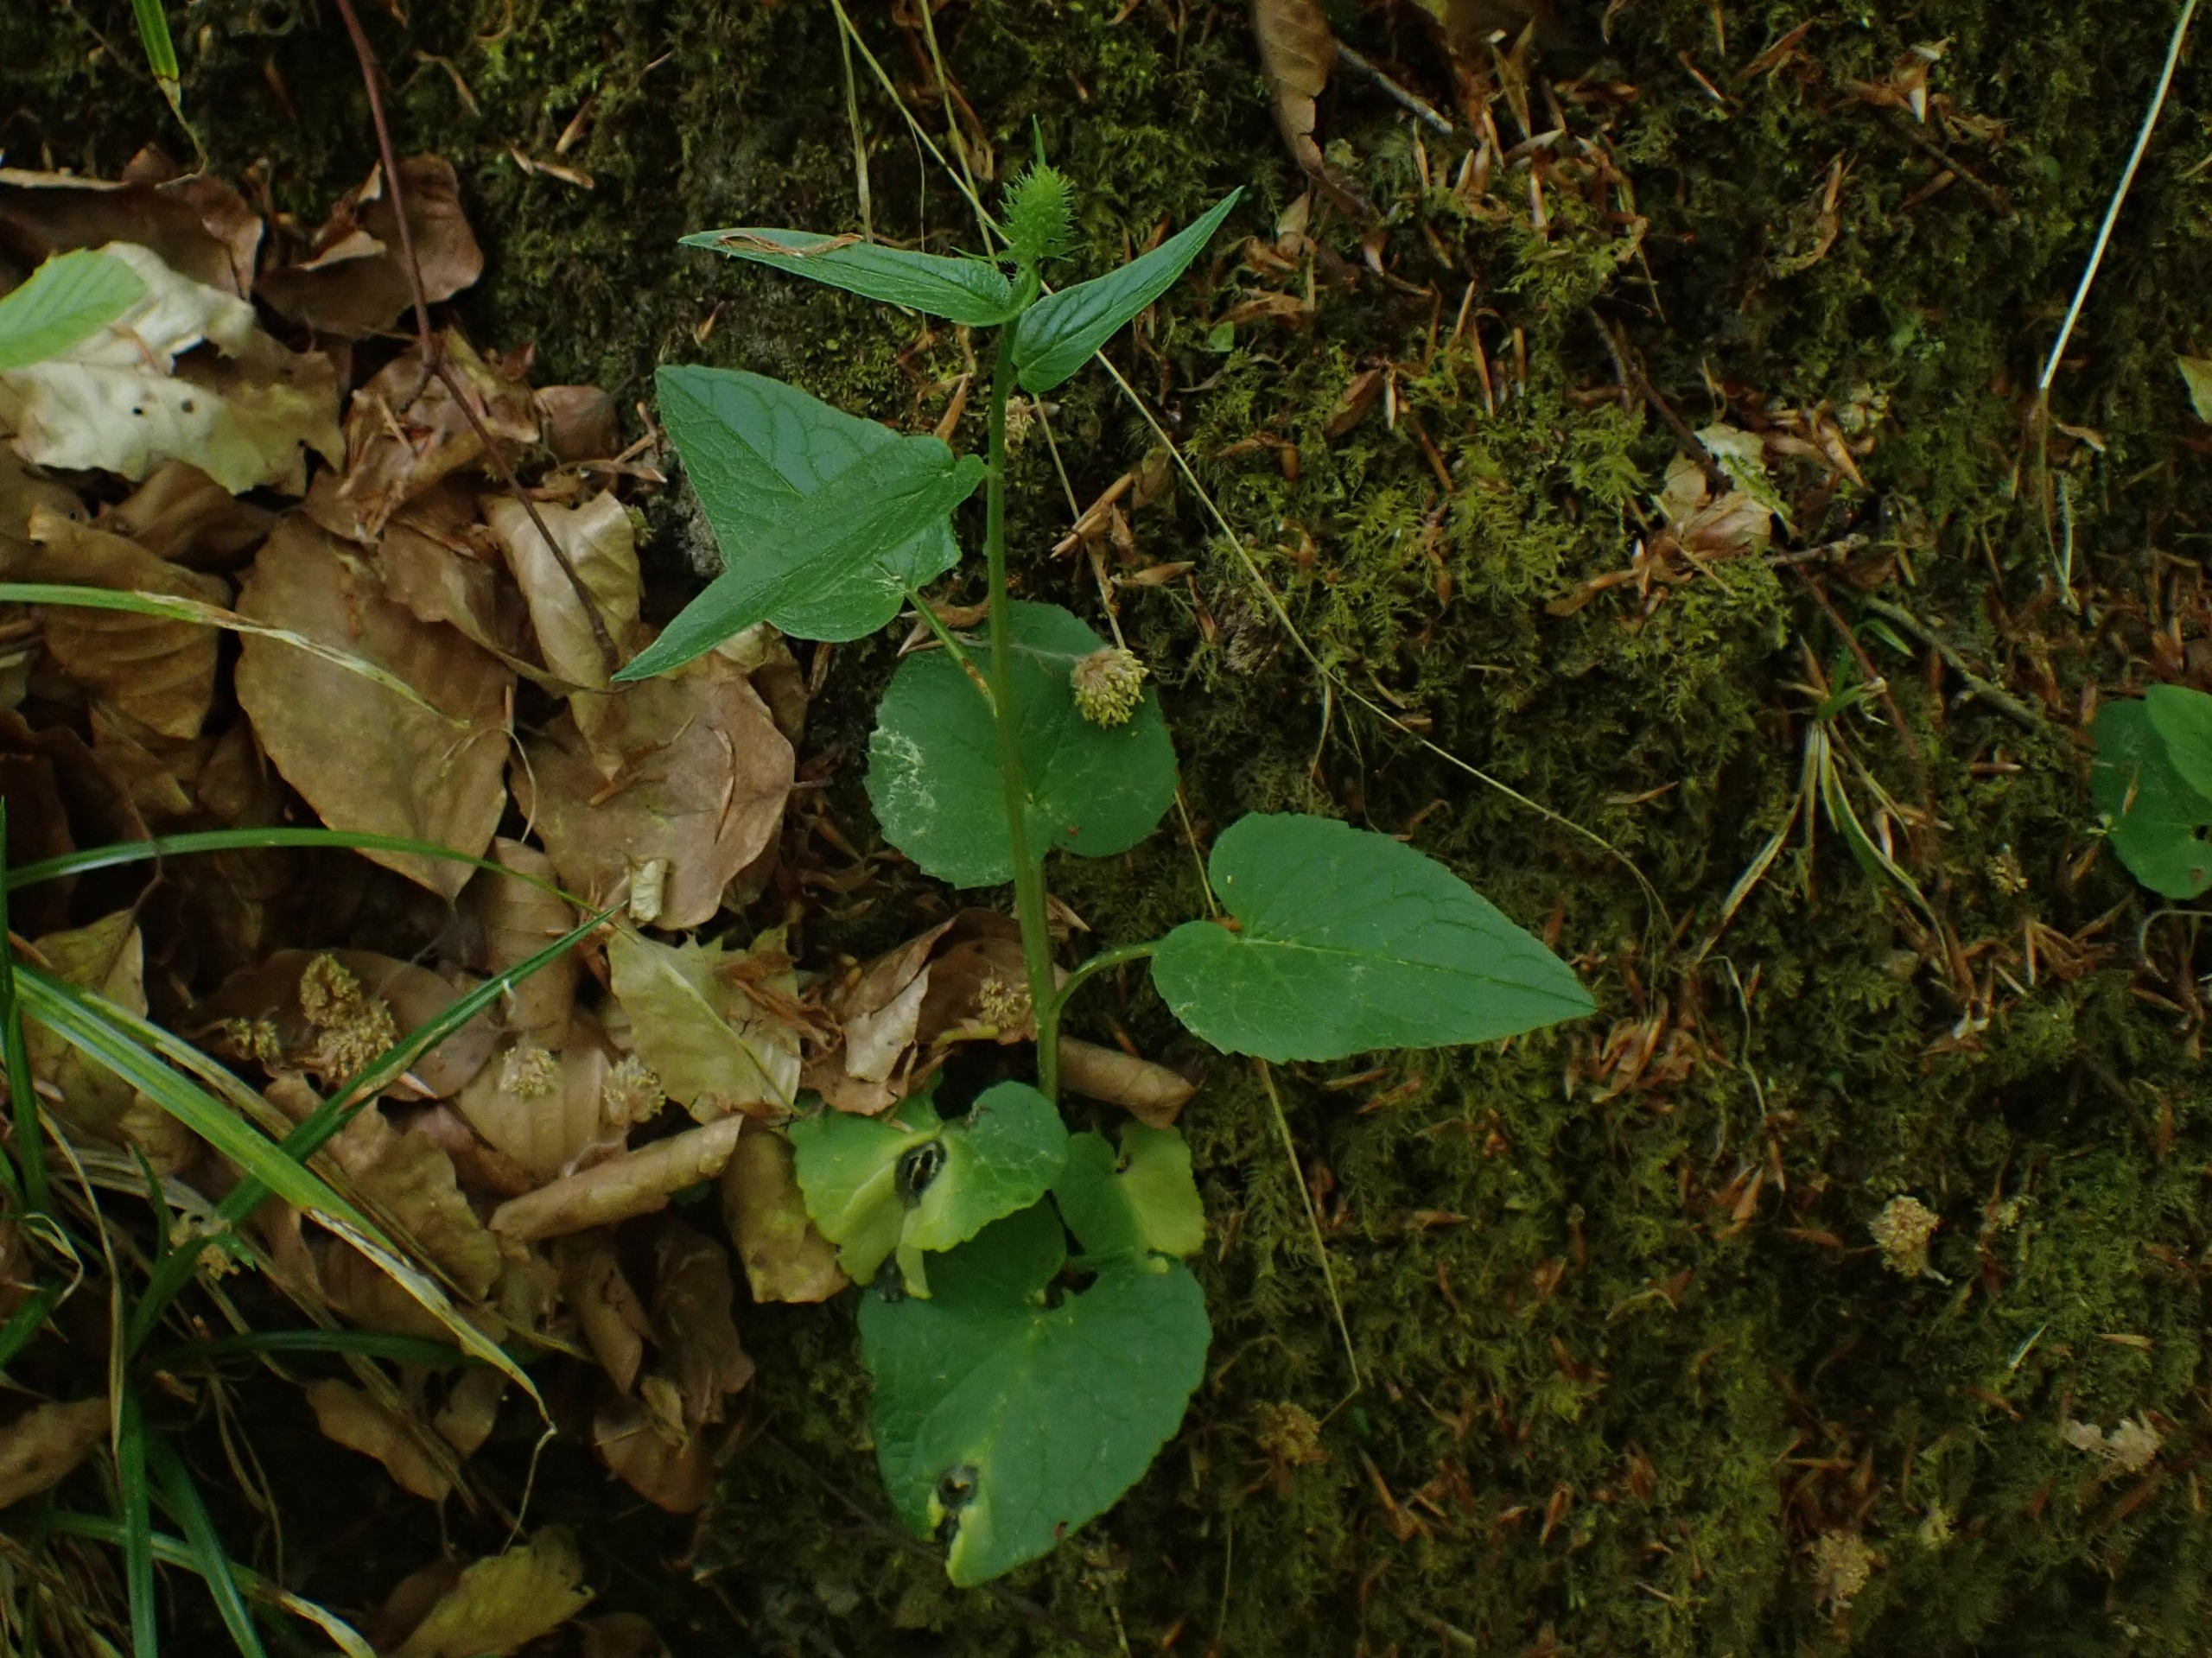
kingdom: Plantae
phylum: Tracheophyta
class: Magnoliopsida
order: Asterales
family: Campanulaceae
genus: Phyteuma
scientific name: Phyteuma spicatum
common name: Aks-rapunsel
